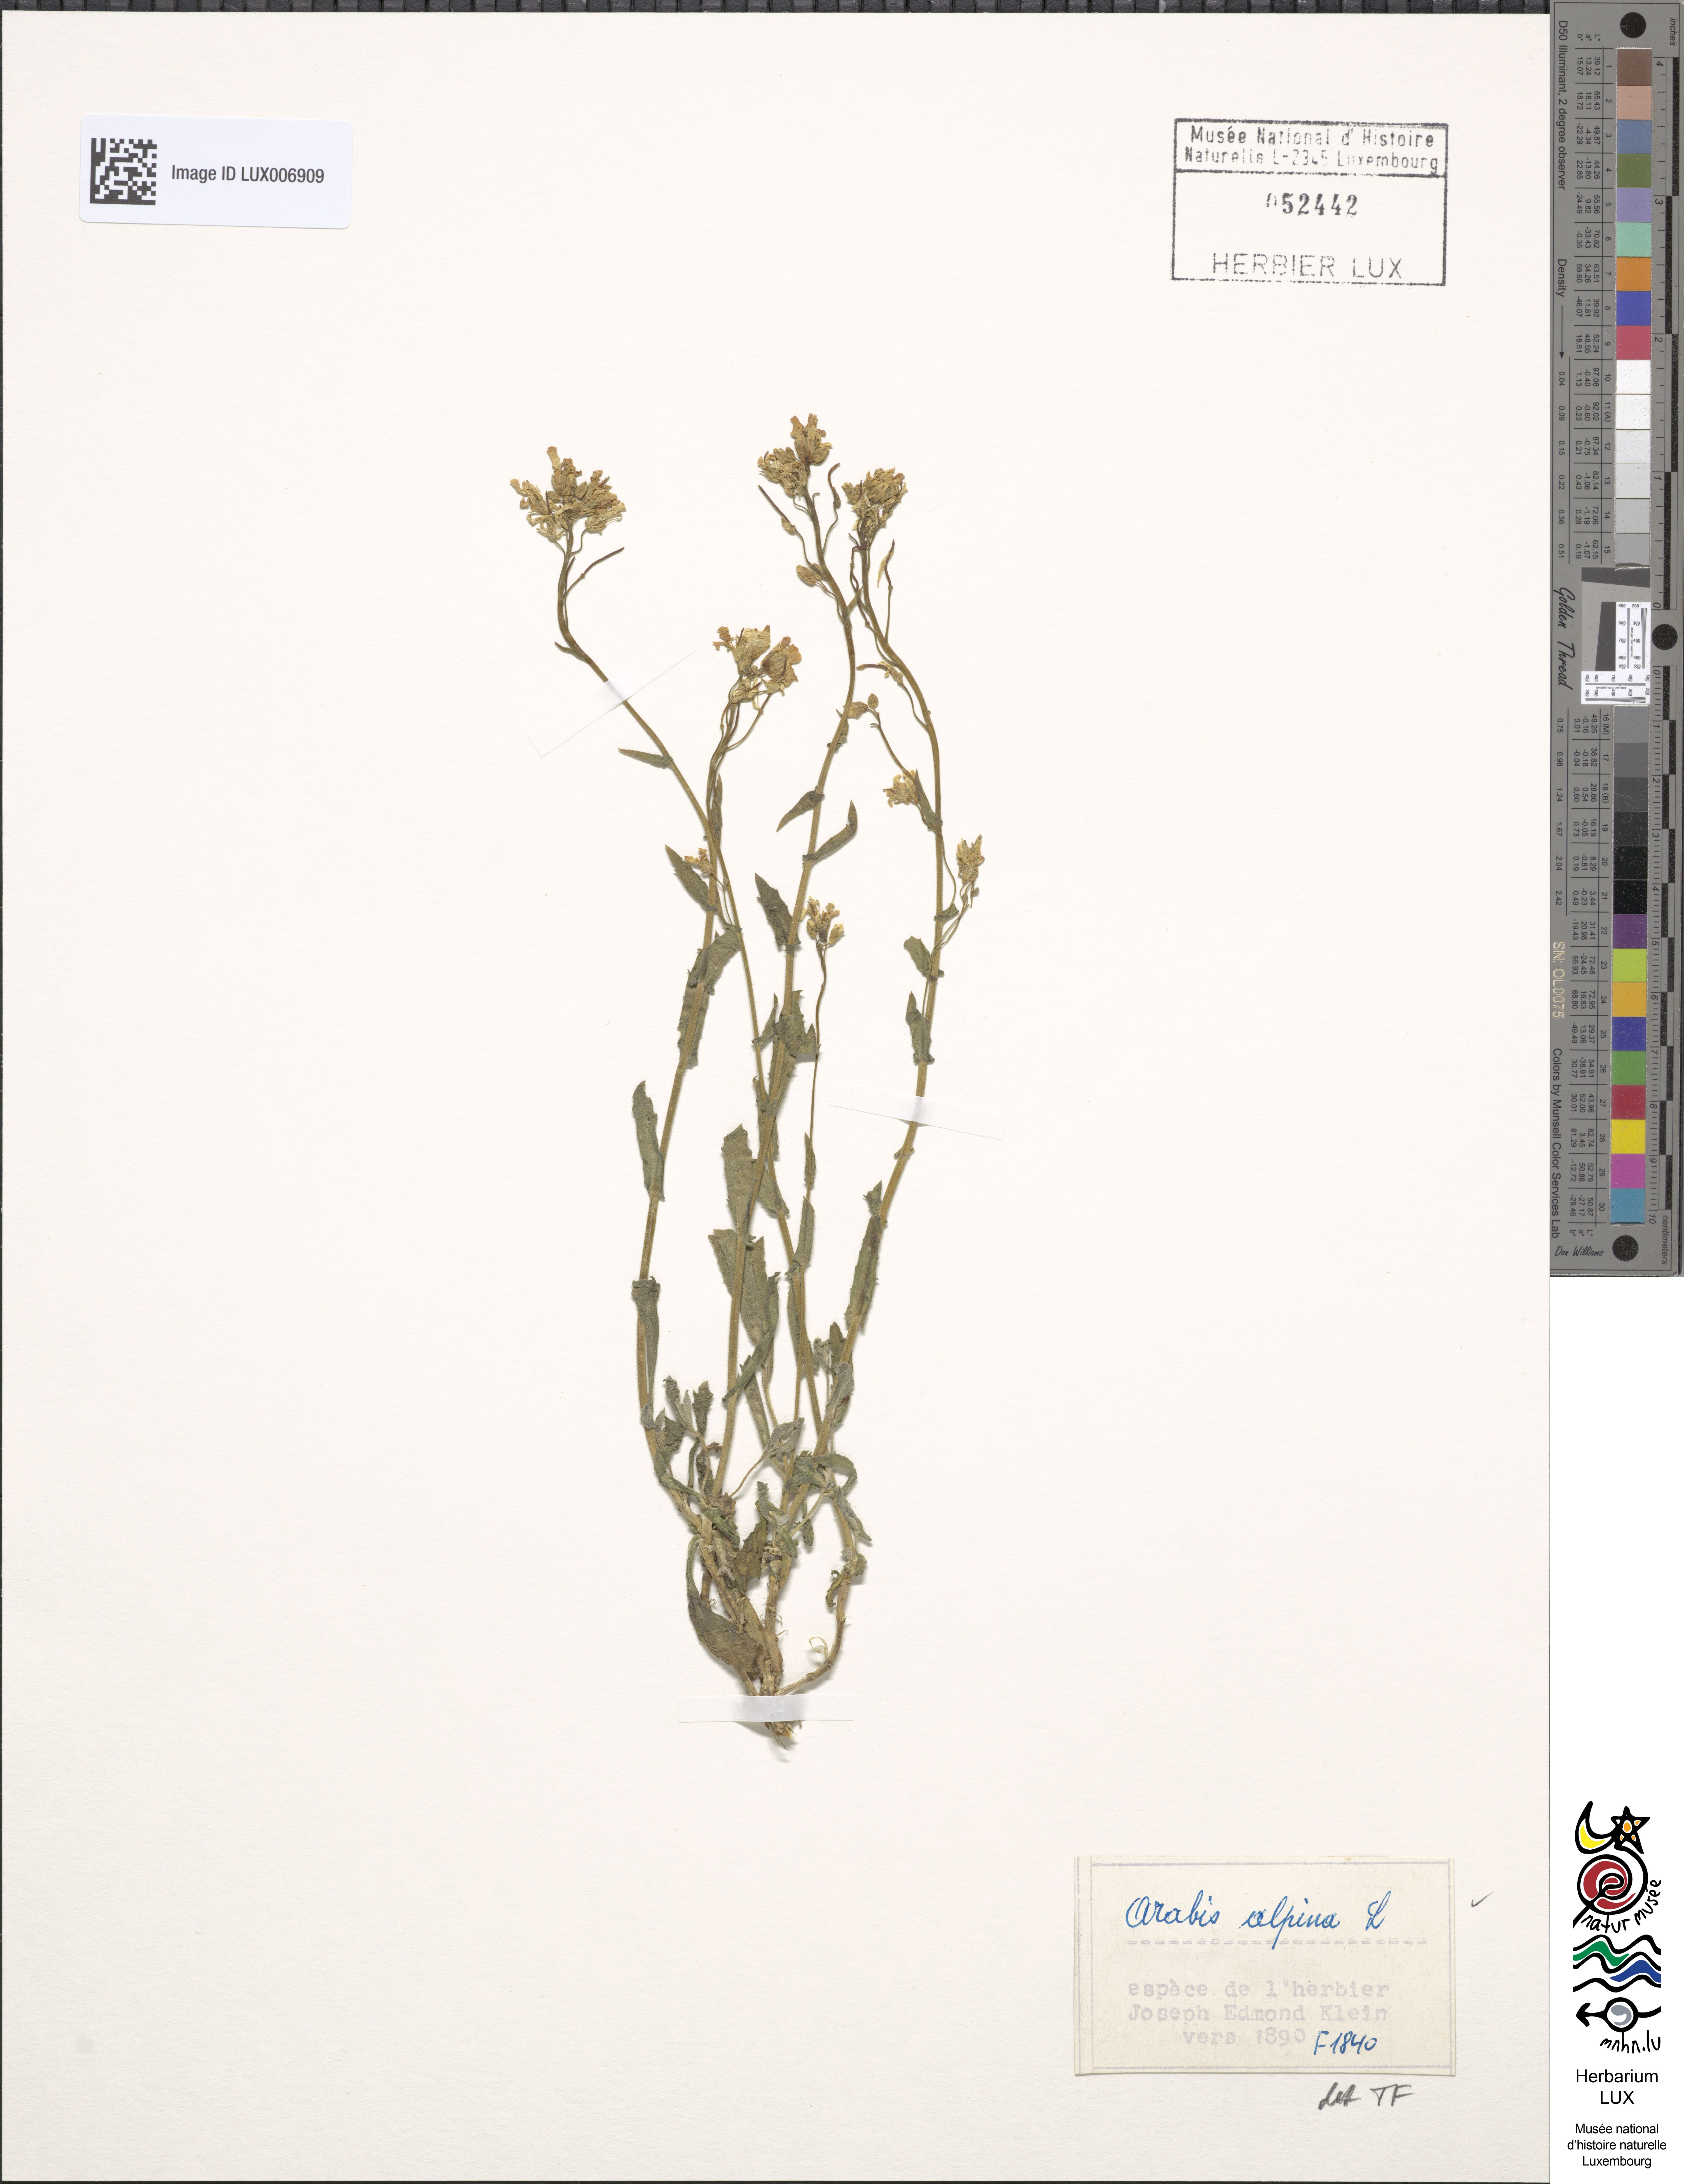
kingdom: Plantae
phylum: Tracheophyta
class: Magnoliopsida
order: Brassicales
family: Brassicaceae
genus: Arabis
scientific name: Arabis alpina
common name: Alpine rock-cress
